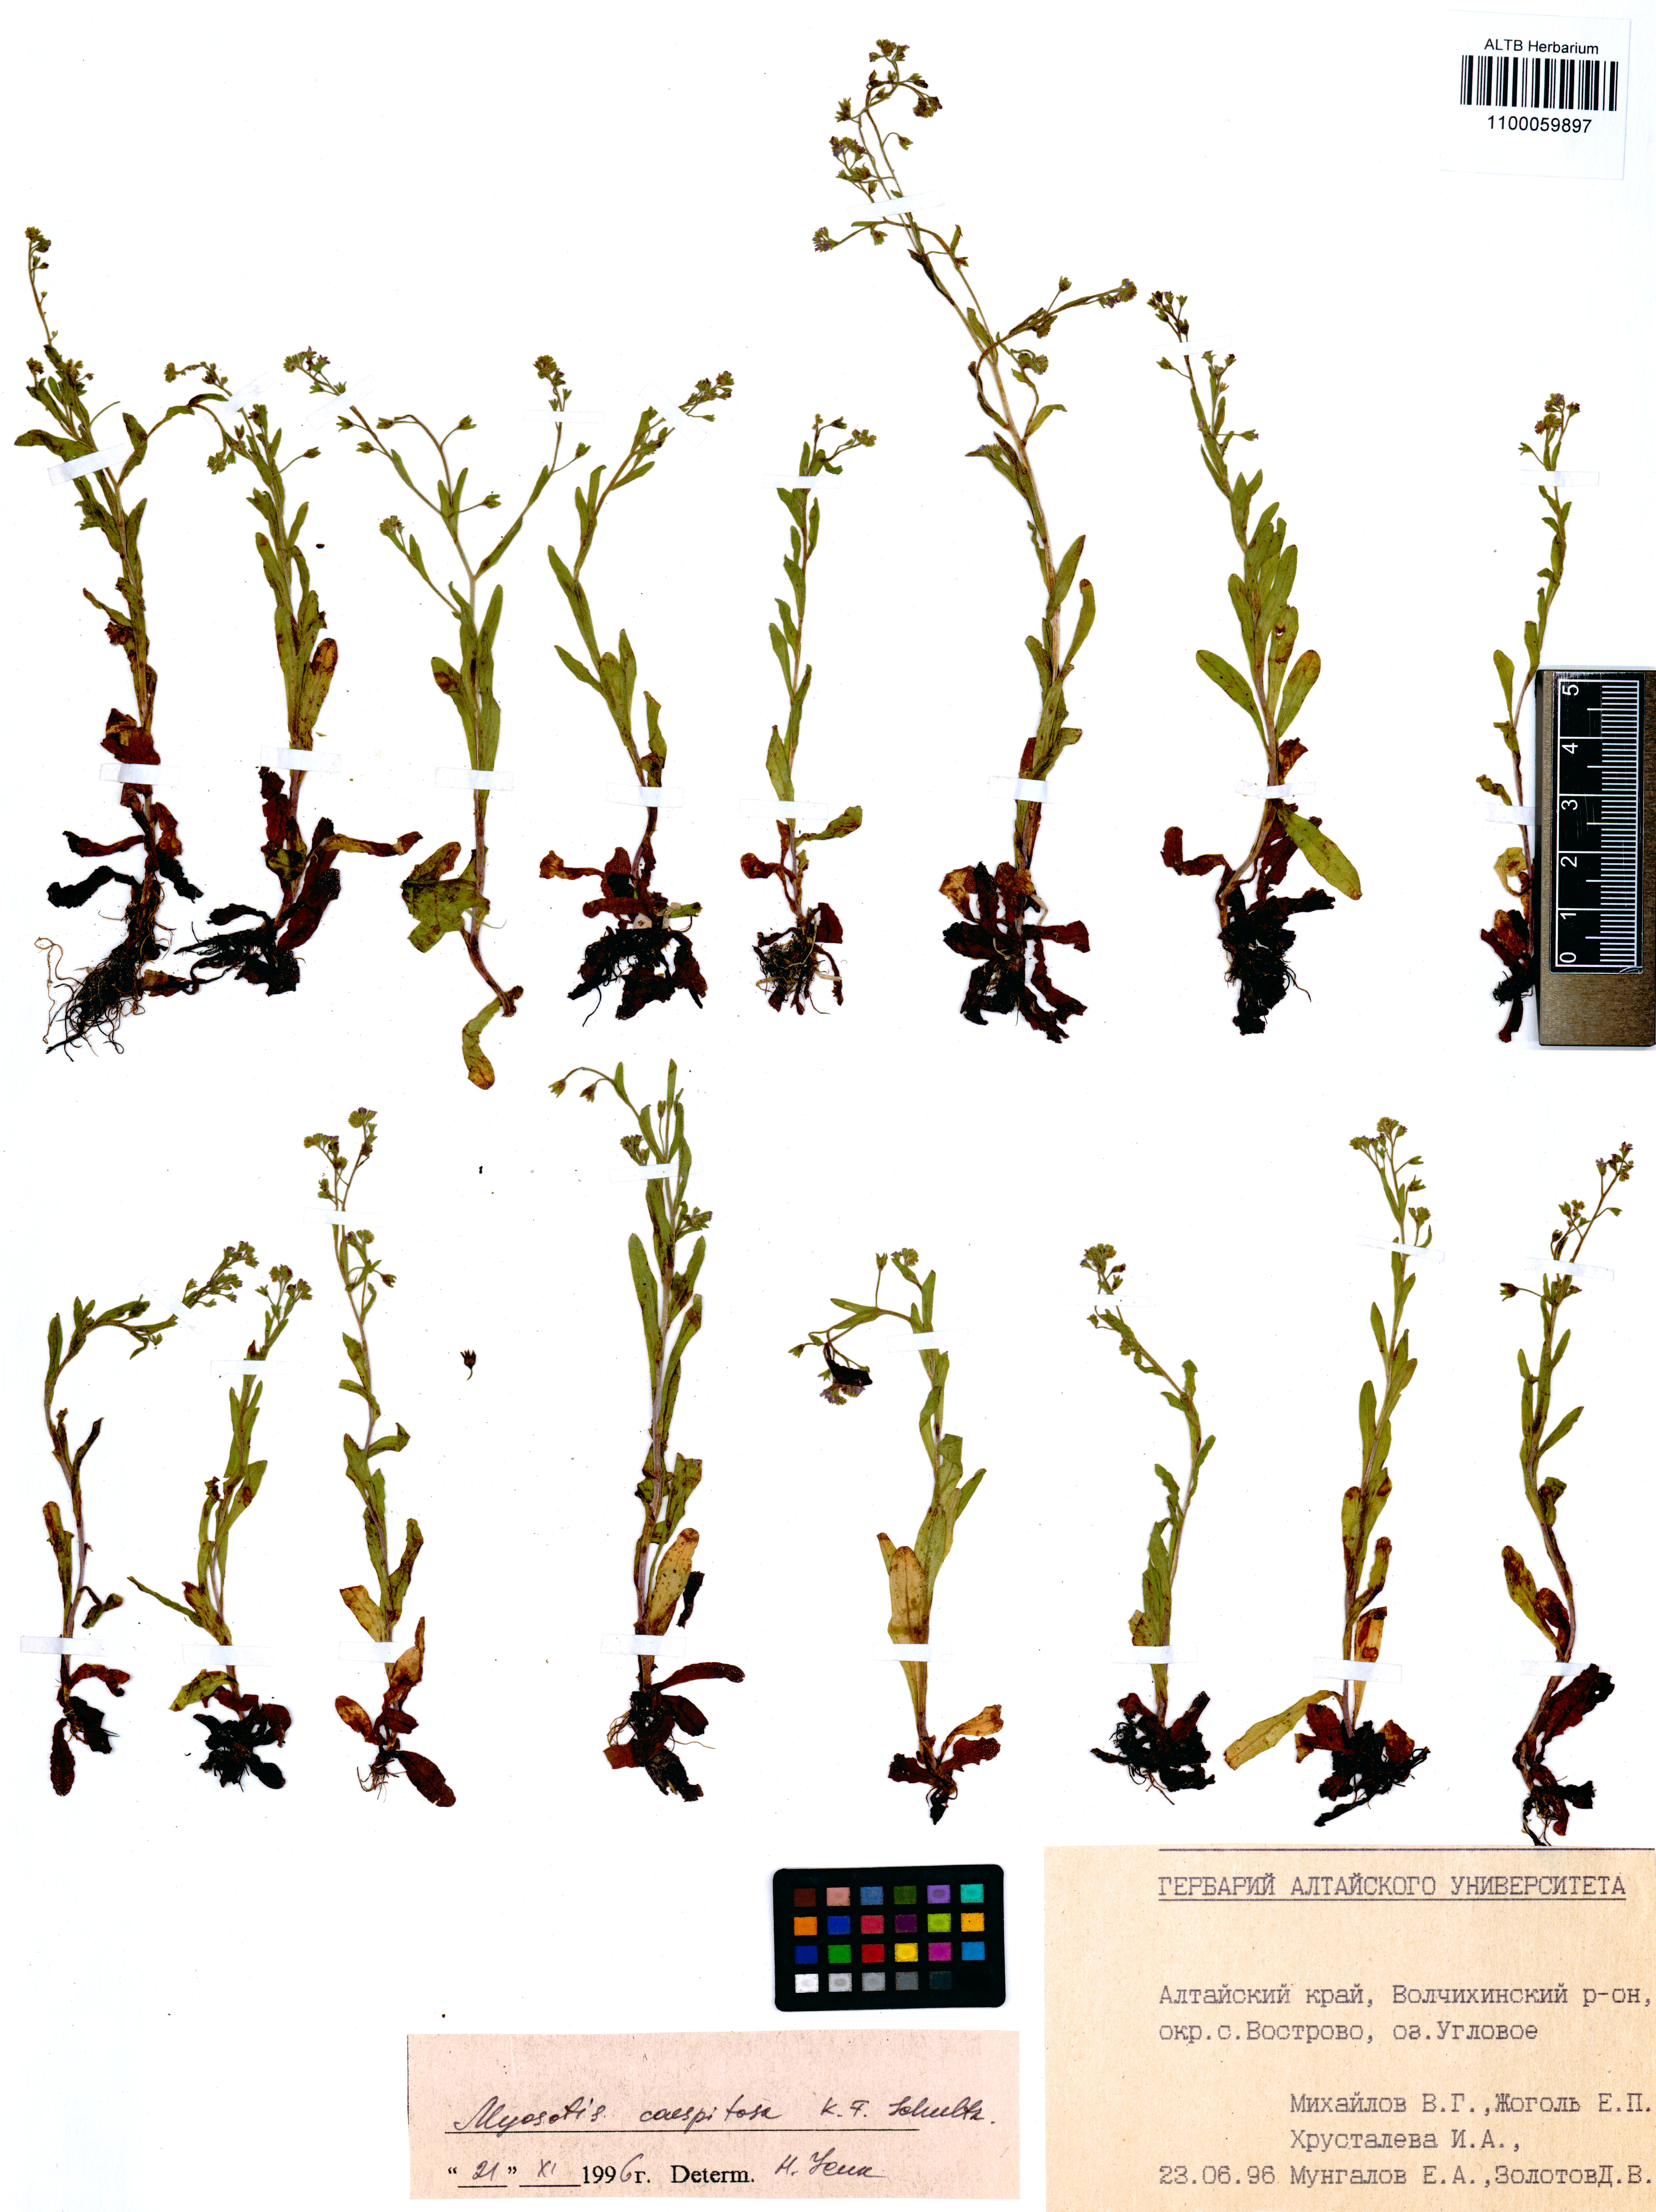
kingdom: Plantae
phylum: Tracheophyta
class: Magnoliopsida
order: Boraginales
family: Boraginaceae
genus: Myosotis
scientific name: Myosotis laxa
